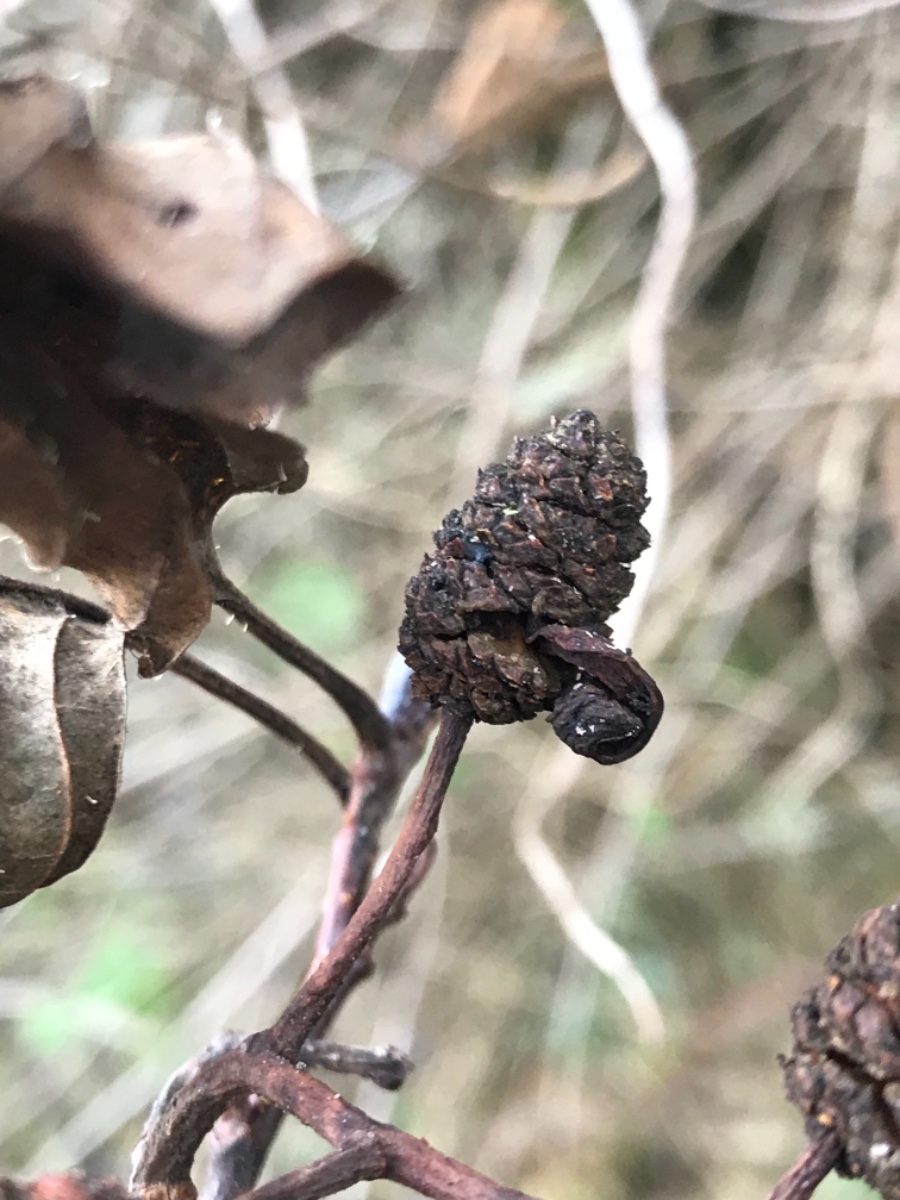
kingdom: Fungi
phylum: Ascomycota
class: Taphrinomycetes
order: Taphrinales
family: Taphrinaceae
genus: Taphrina
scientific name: Taphrina alni
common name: Alder tongue
